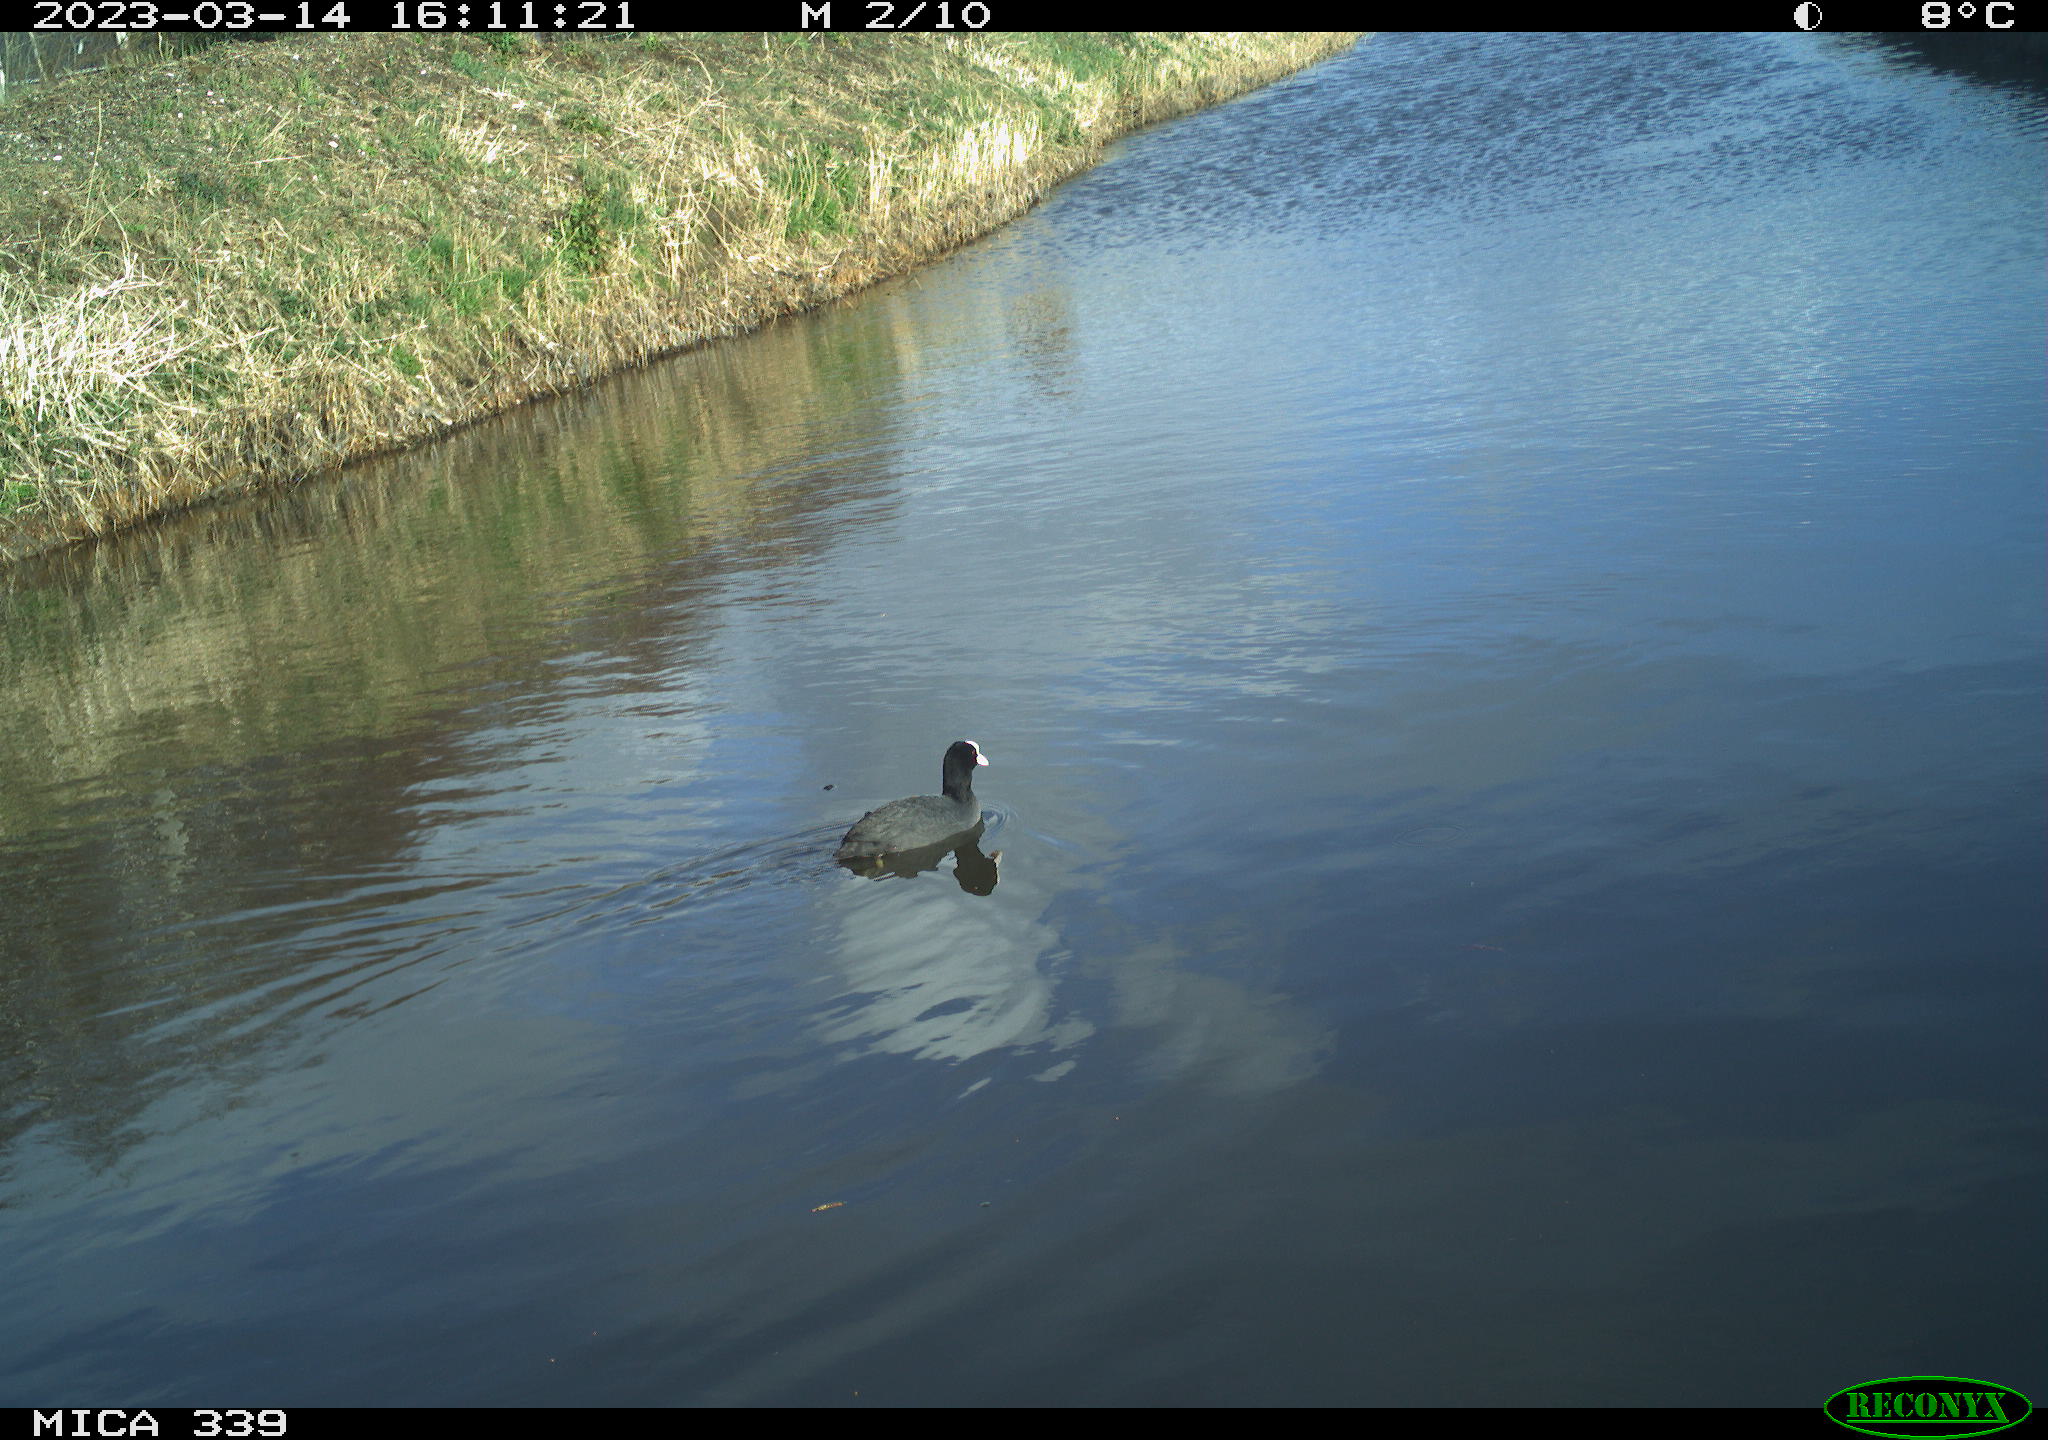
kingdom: Animalia
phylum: Chordata
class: Aves
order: Anseriformes
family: Anatidae
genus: Anas
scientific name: Anas
